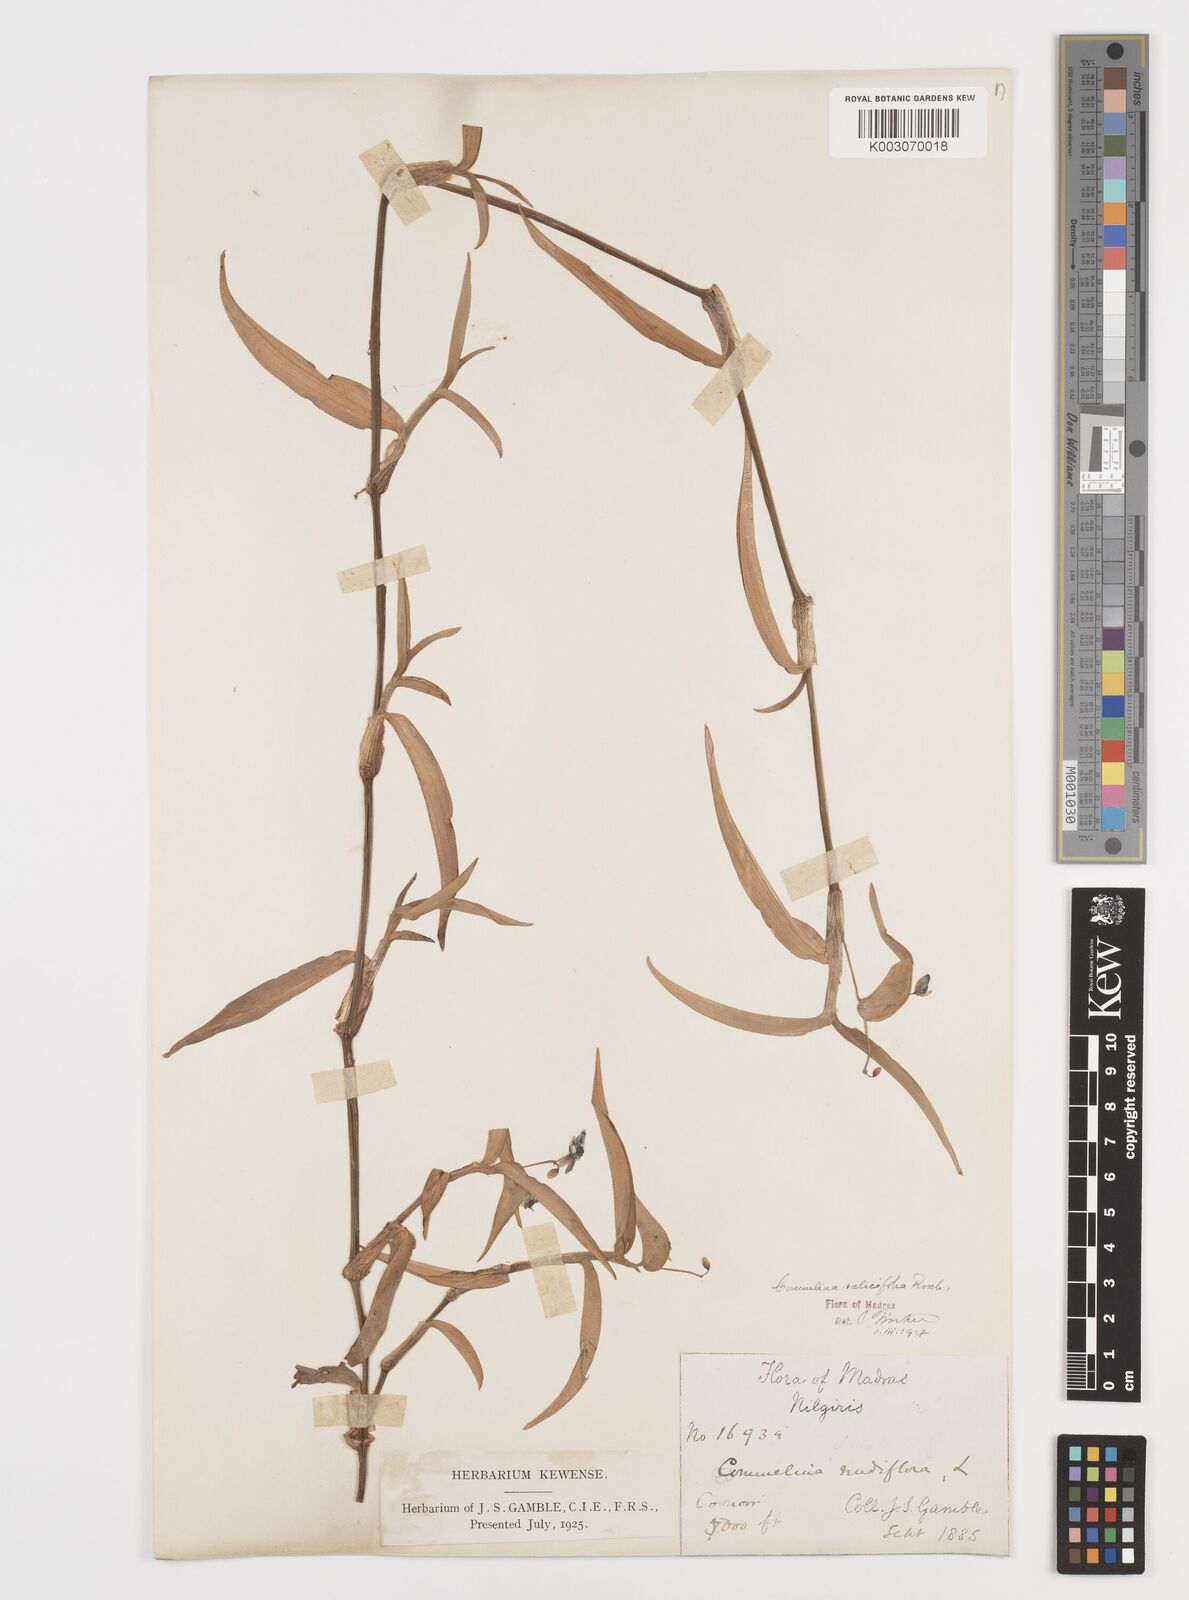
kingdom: Plantae
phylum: Tracheophyta
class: Liliopsida
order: Commelinales
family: Commelinaceae
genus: Commelina
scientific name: Commelina caroliniana
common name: Carolina dayflower
